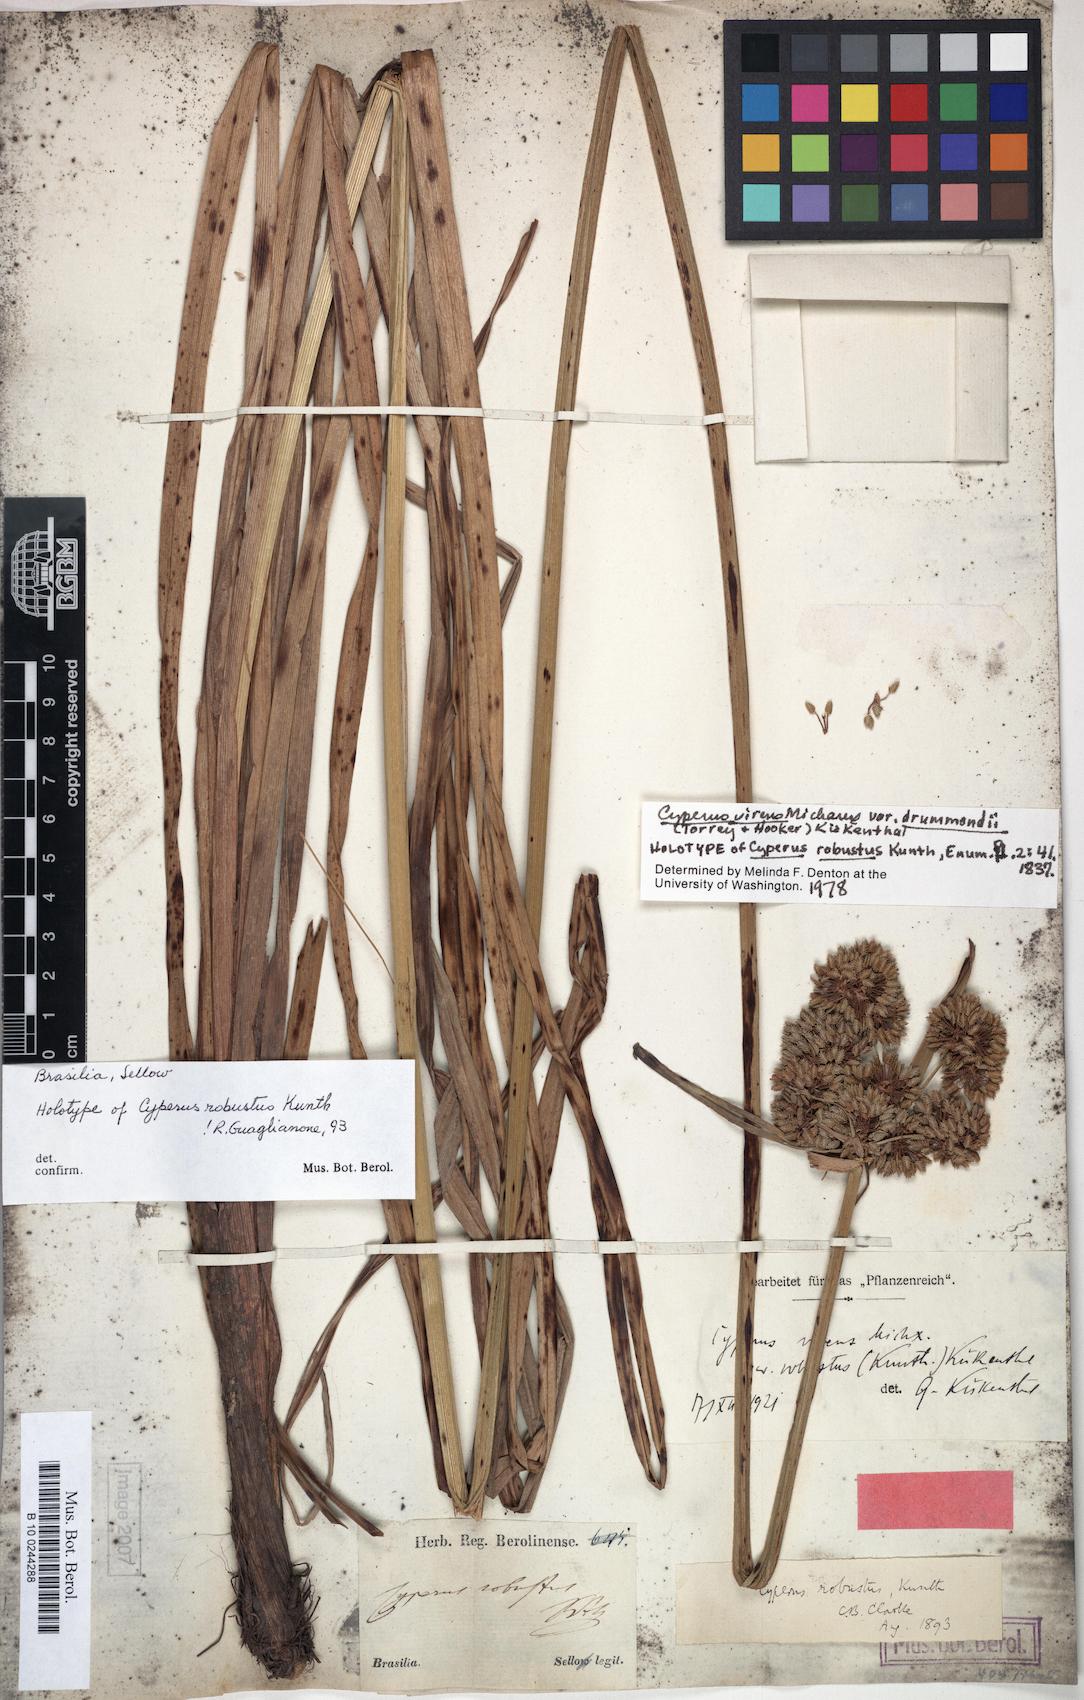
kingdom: Plantae
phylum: Tracheophyta
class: Liliopsida
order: Poales
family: Cyperaceae
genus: Cyperus
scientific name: Cyperus drummondii
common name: Green flat sedge
